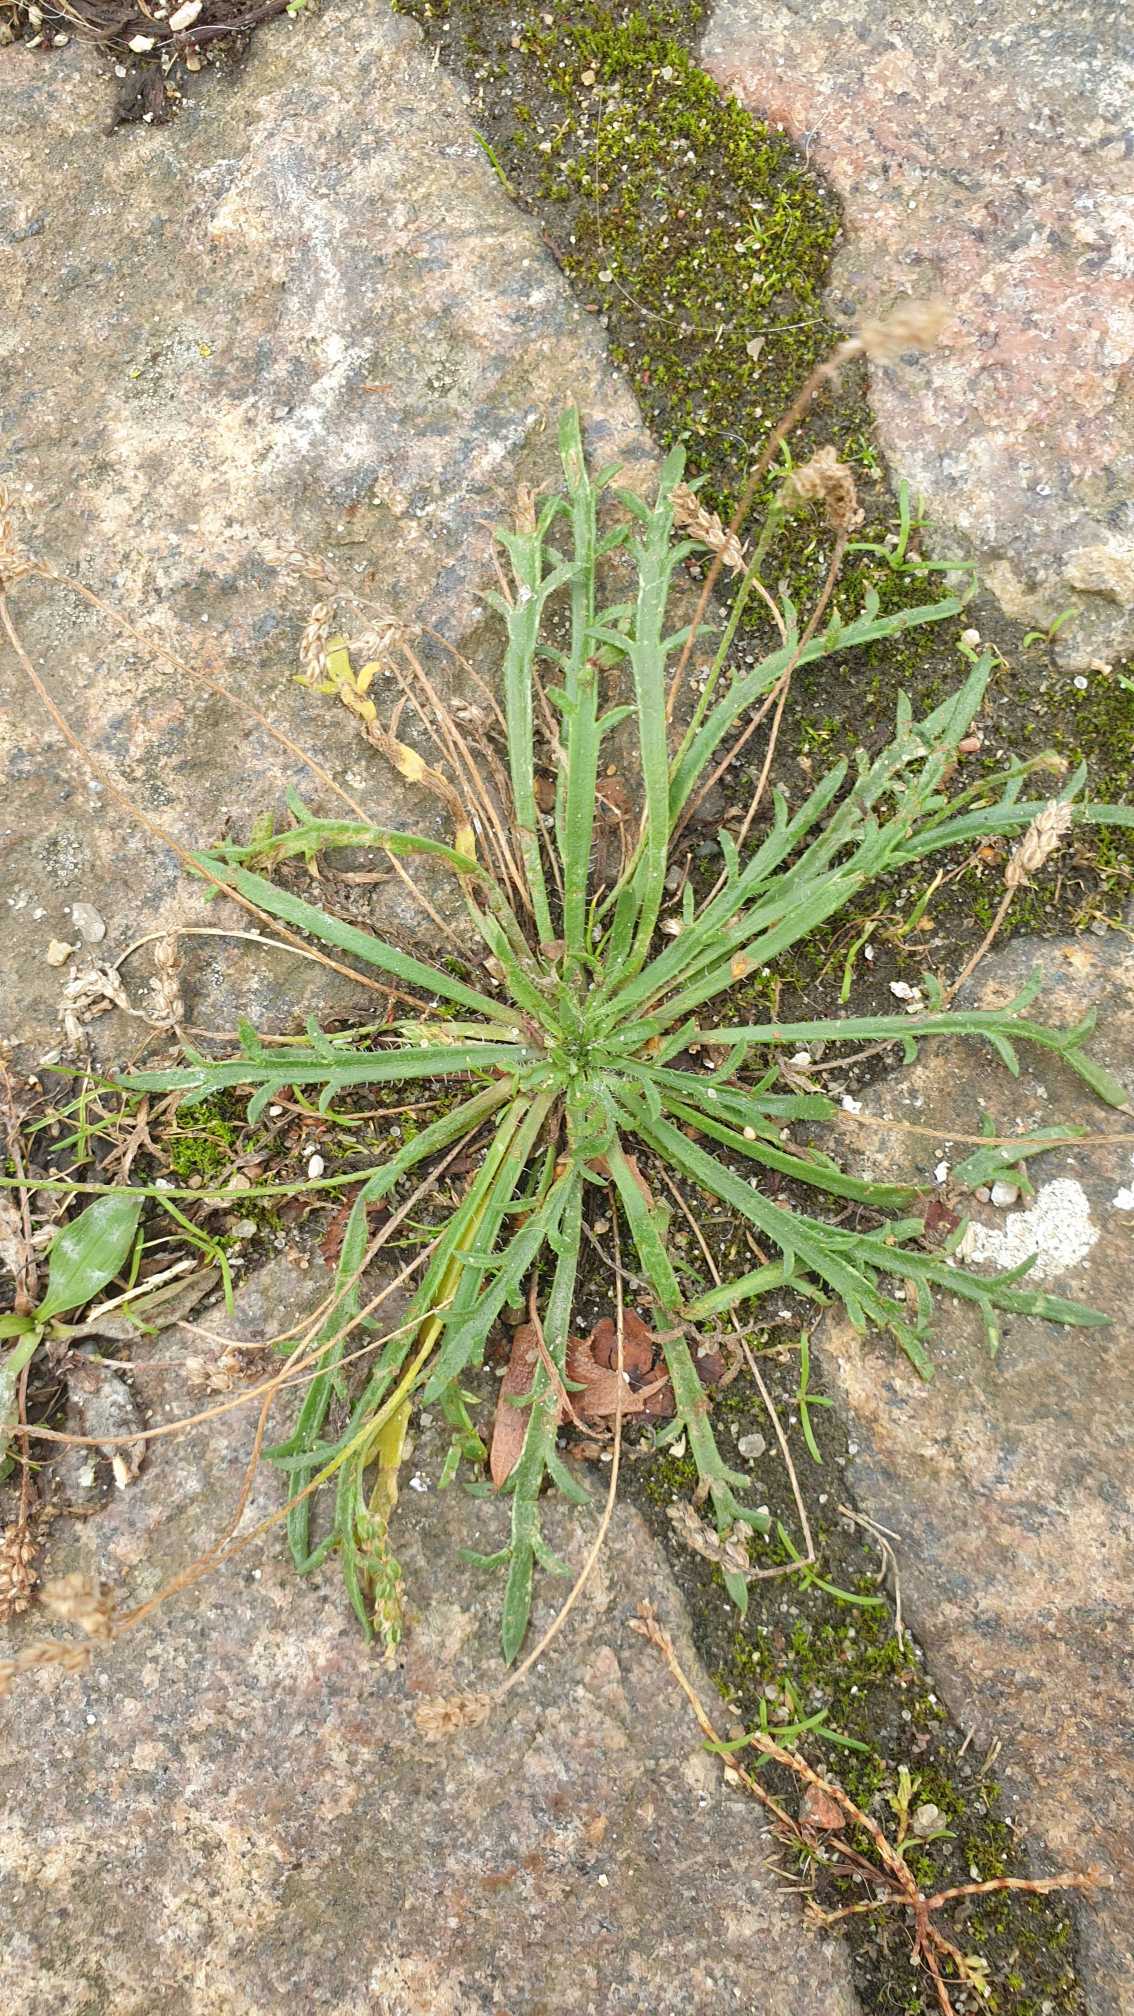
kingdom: Plantae
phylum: Tracheophyta
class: Magnoliopsida
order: Lamiales
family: Plantaginaceae
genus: Plantago
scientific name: Plantago coronopus
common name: Fliget vejbred
